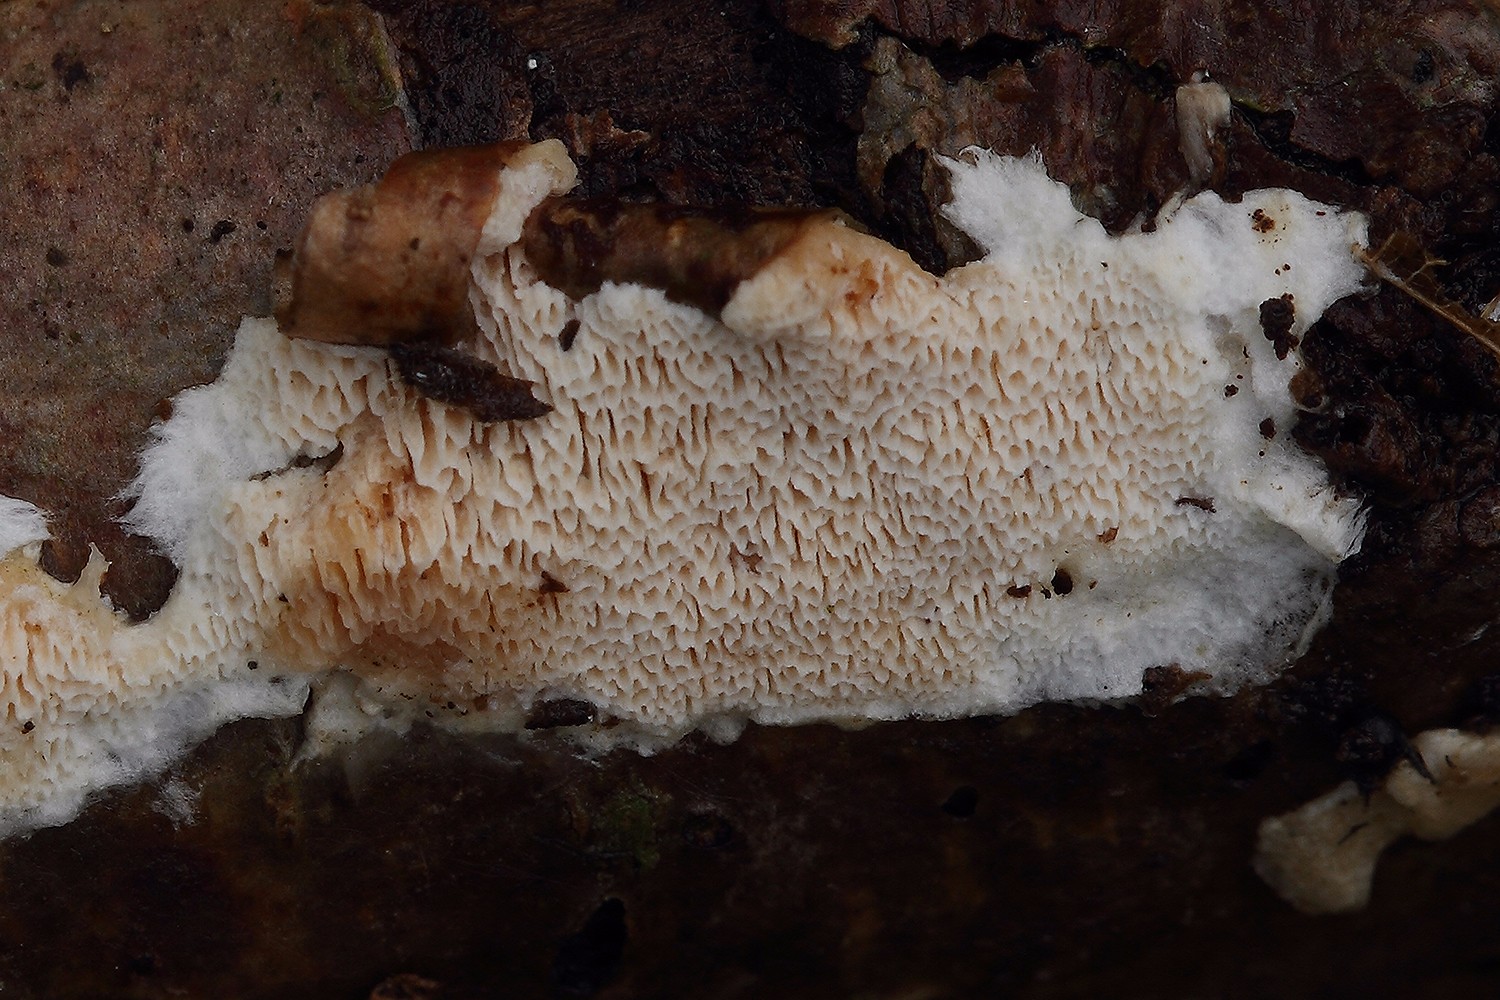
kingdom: Fungi
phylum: Basidiomycota
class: Agaricomycetes
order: Hymenochaetales
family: Schizoporaceae
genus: Xylodon
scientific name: Xylodon subtropicus
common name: labyrint-tandsvamp
